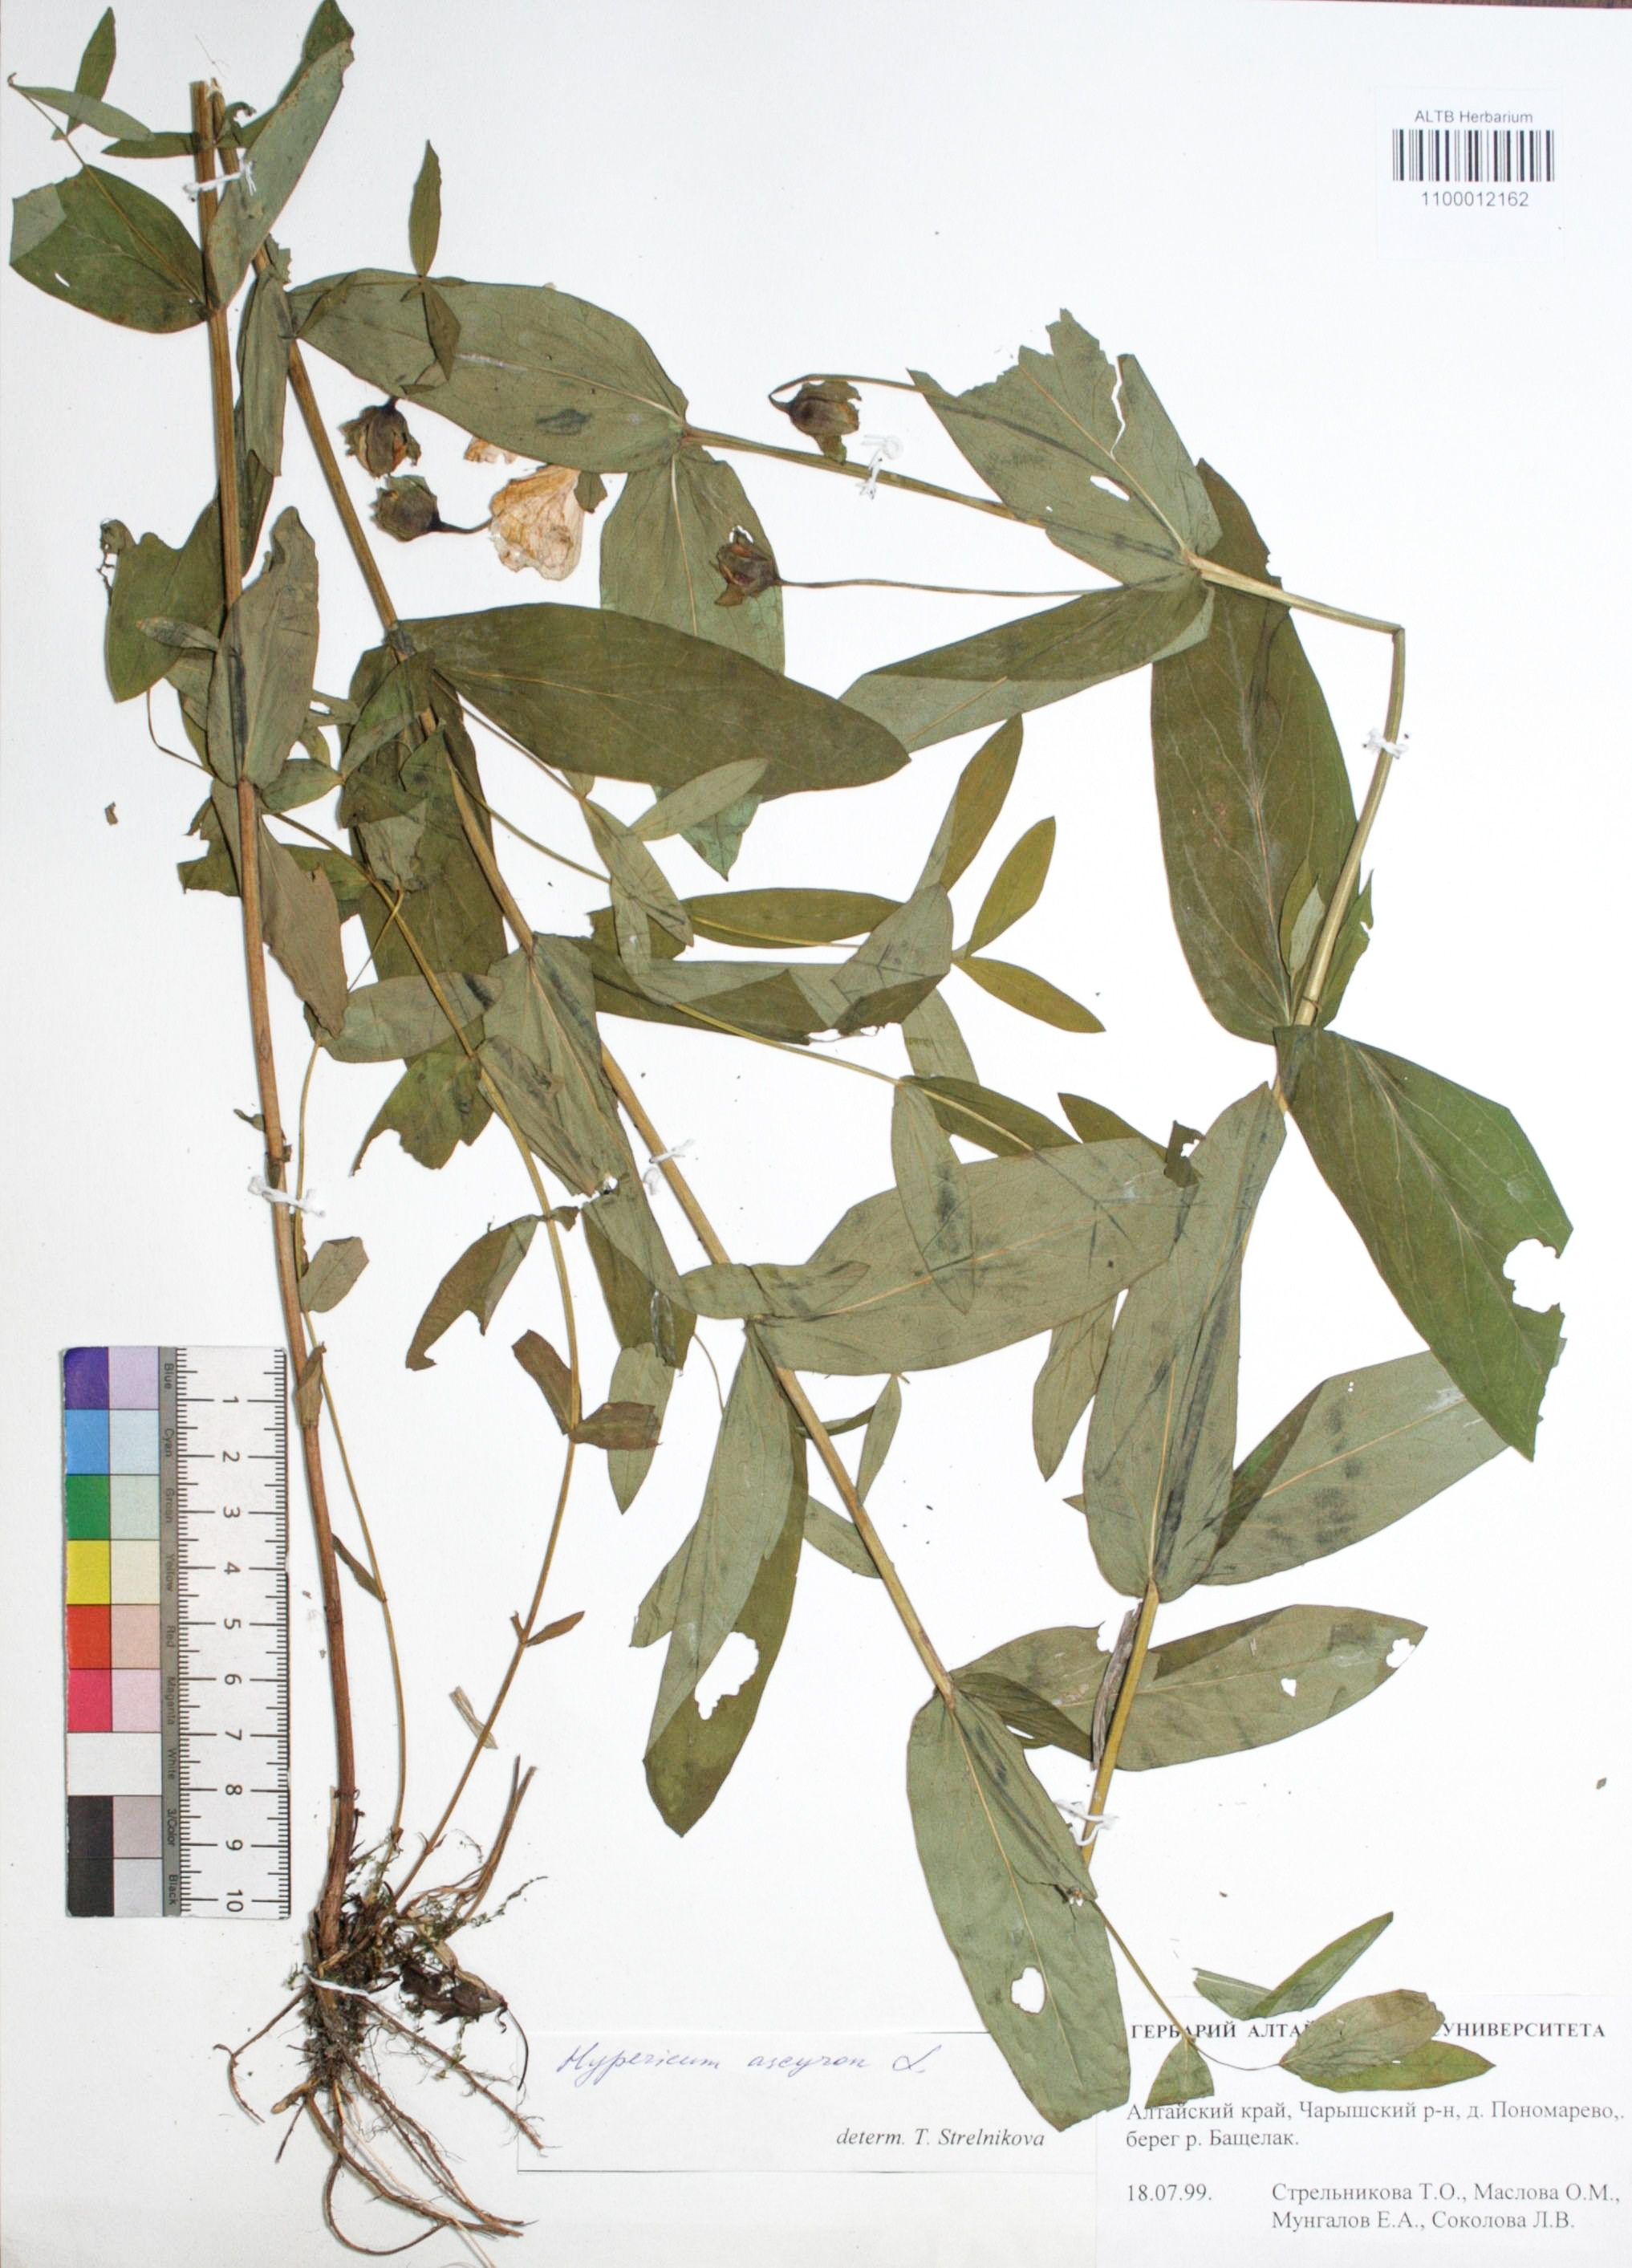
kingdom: Plantae
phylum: Tracheophyta
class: Magnoliopsida
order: Malpighiales
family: Hypericaceae
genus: Hypericum
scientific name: Hypericum ascyron
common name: Giant st. john's-wort
